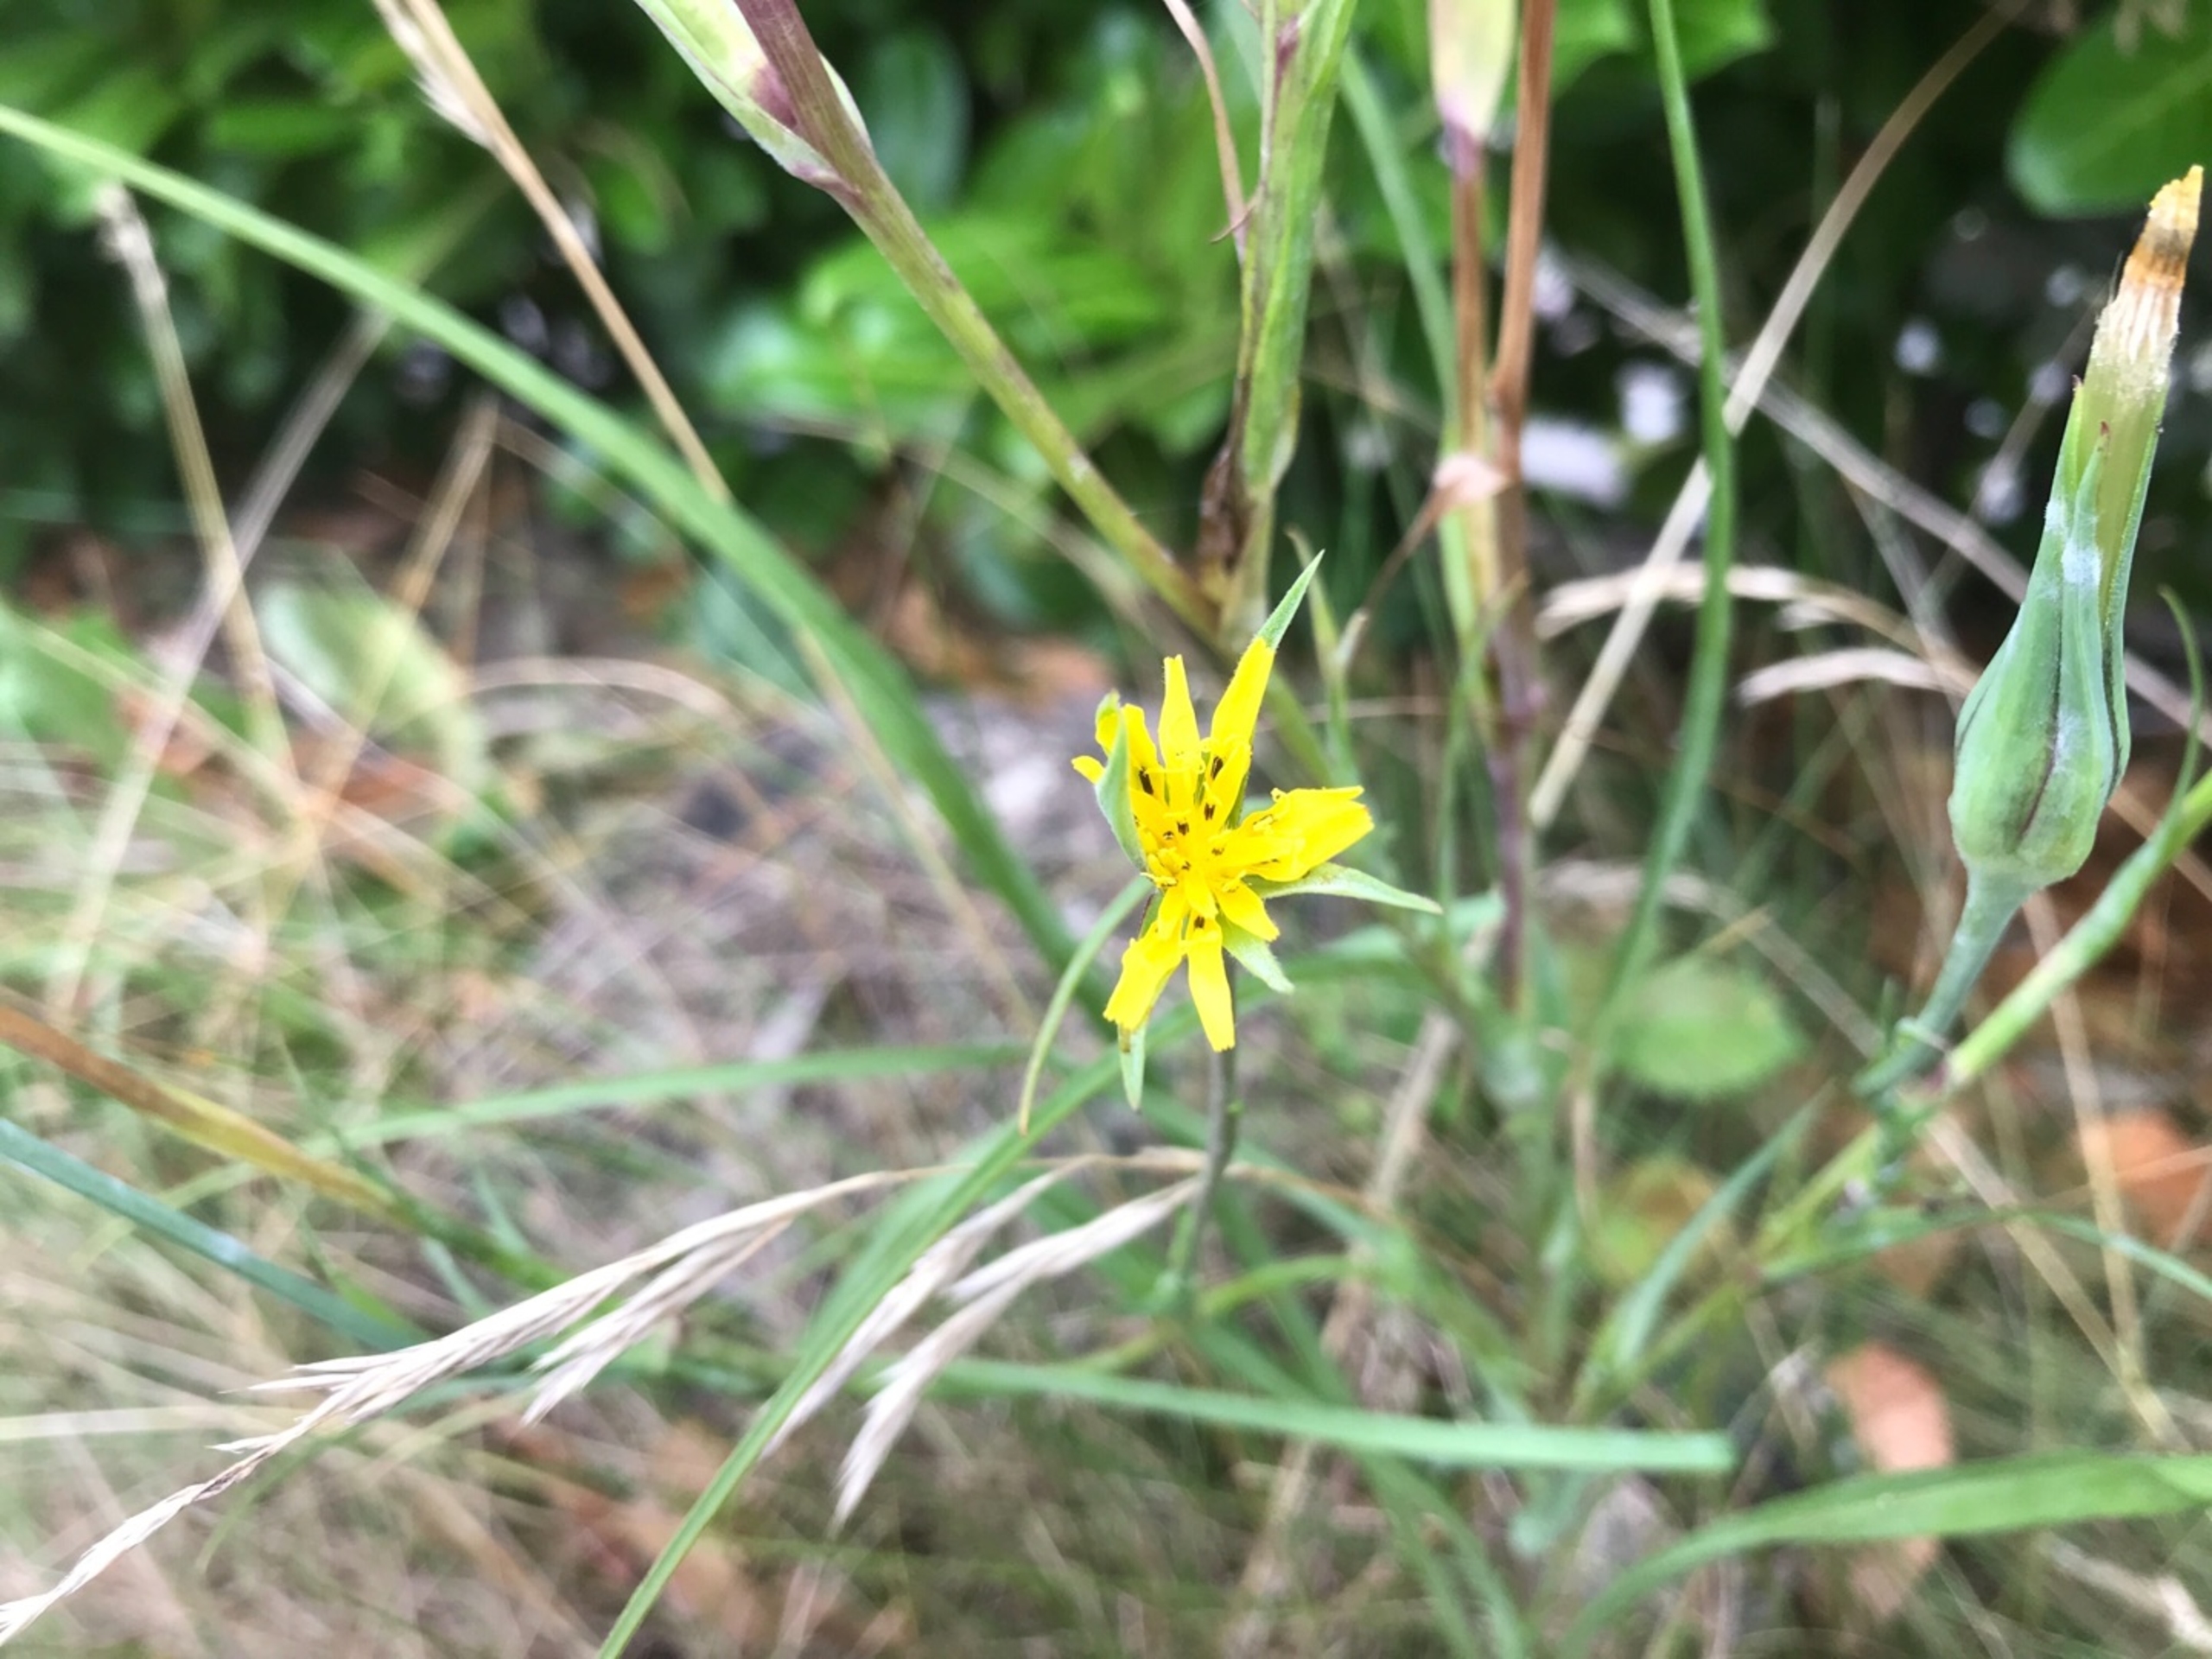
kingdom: Plantae
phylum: Tracheophyta
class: Magnoliopsida
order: Asterales
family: Asteraceae
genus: Tragopogon
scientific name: Tragopogon minor
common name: Småkronet gedeskæg
